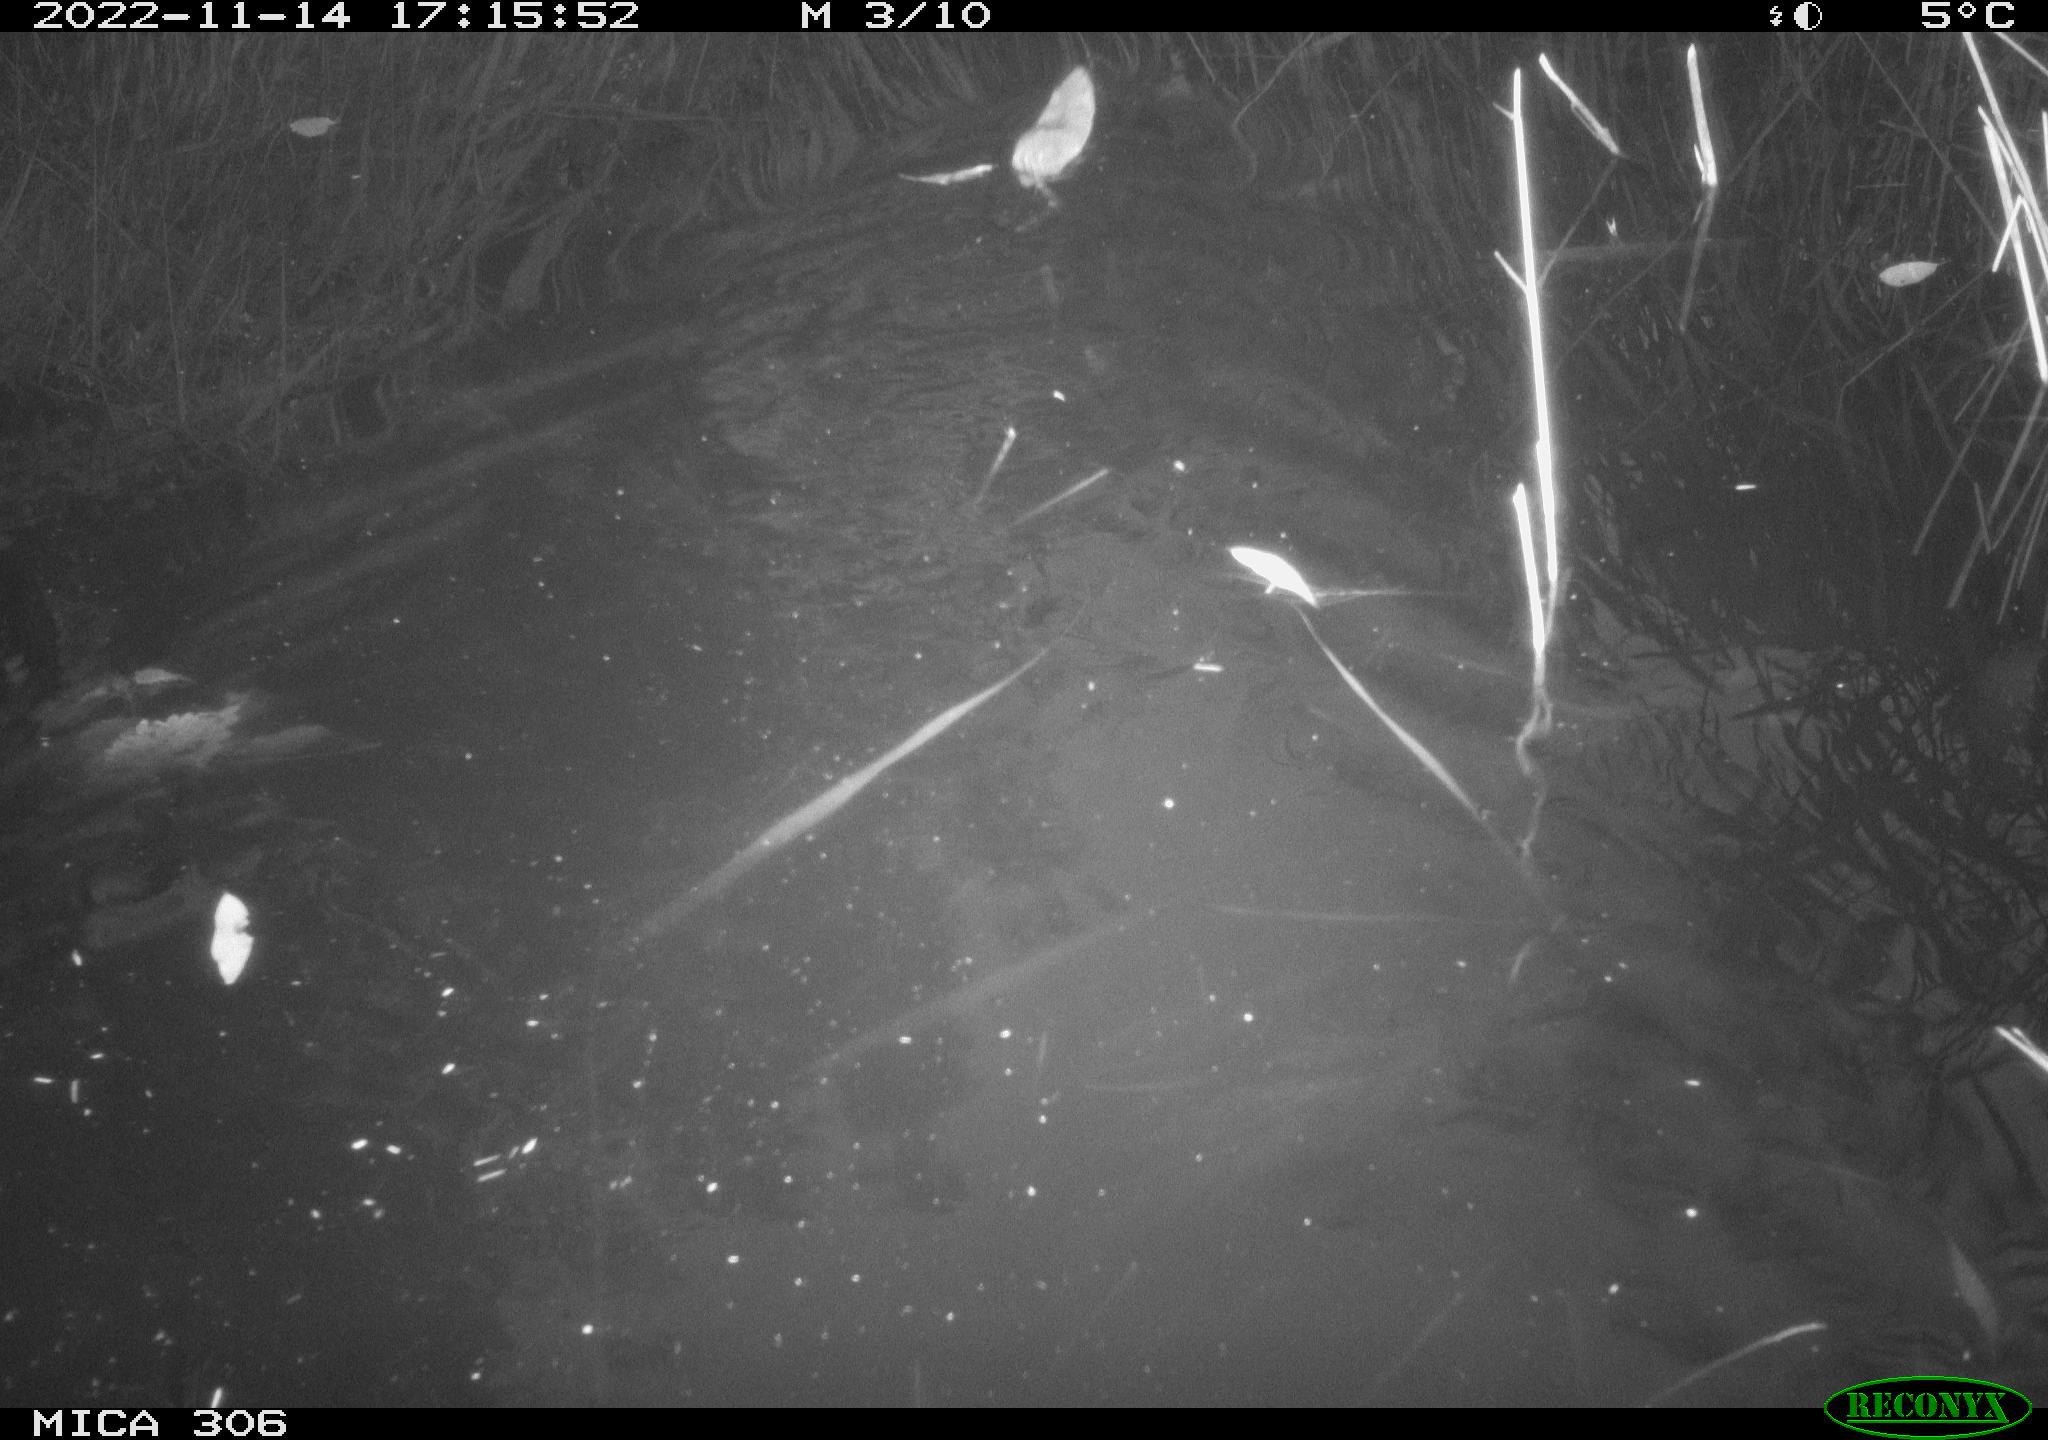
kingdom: Animalia
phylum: Chordata
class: Mammalia
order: Rodentia
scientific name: Rodentia
